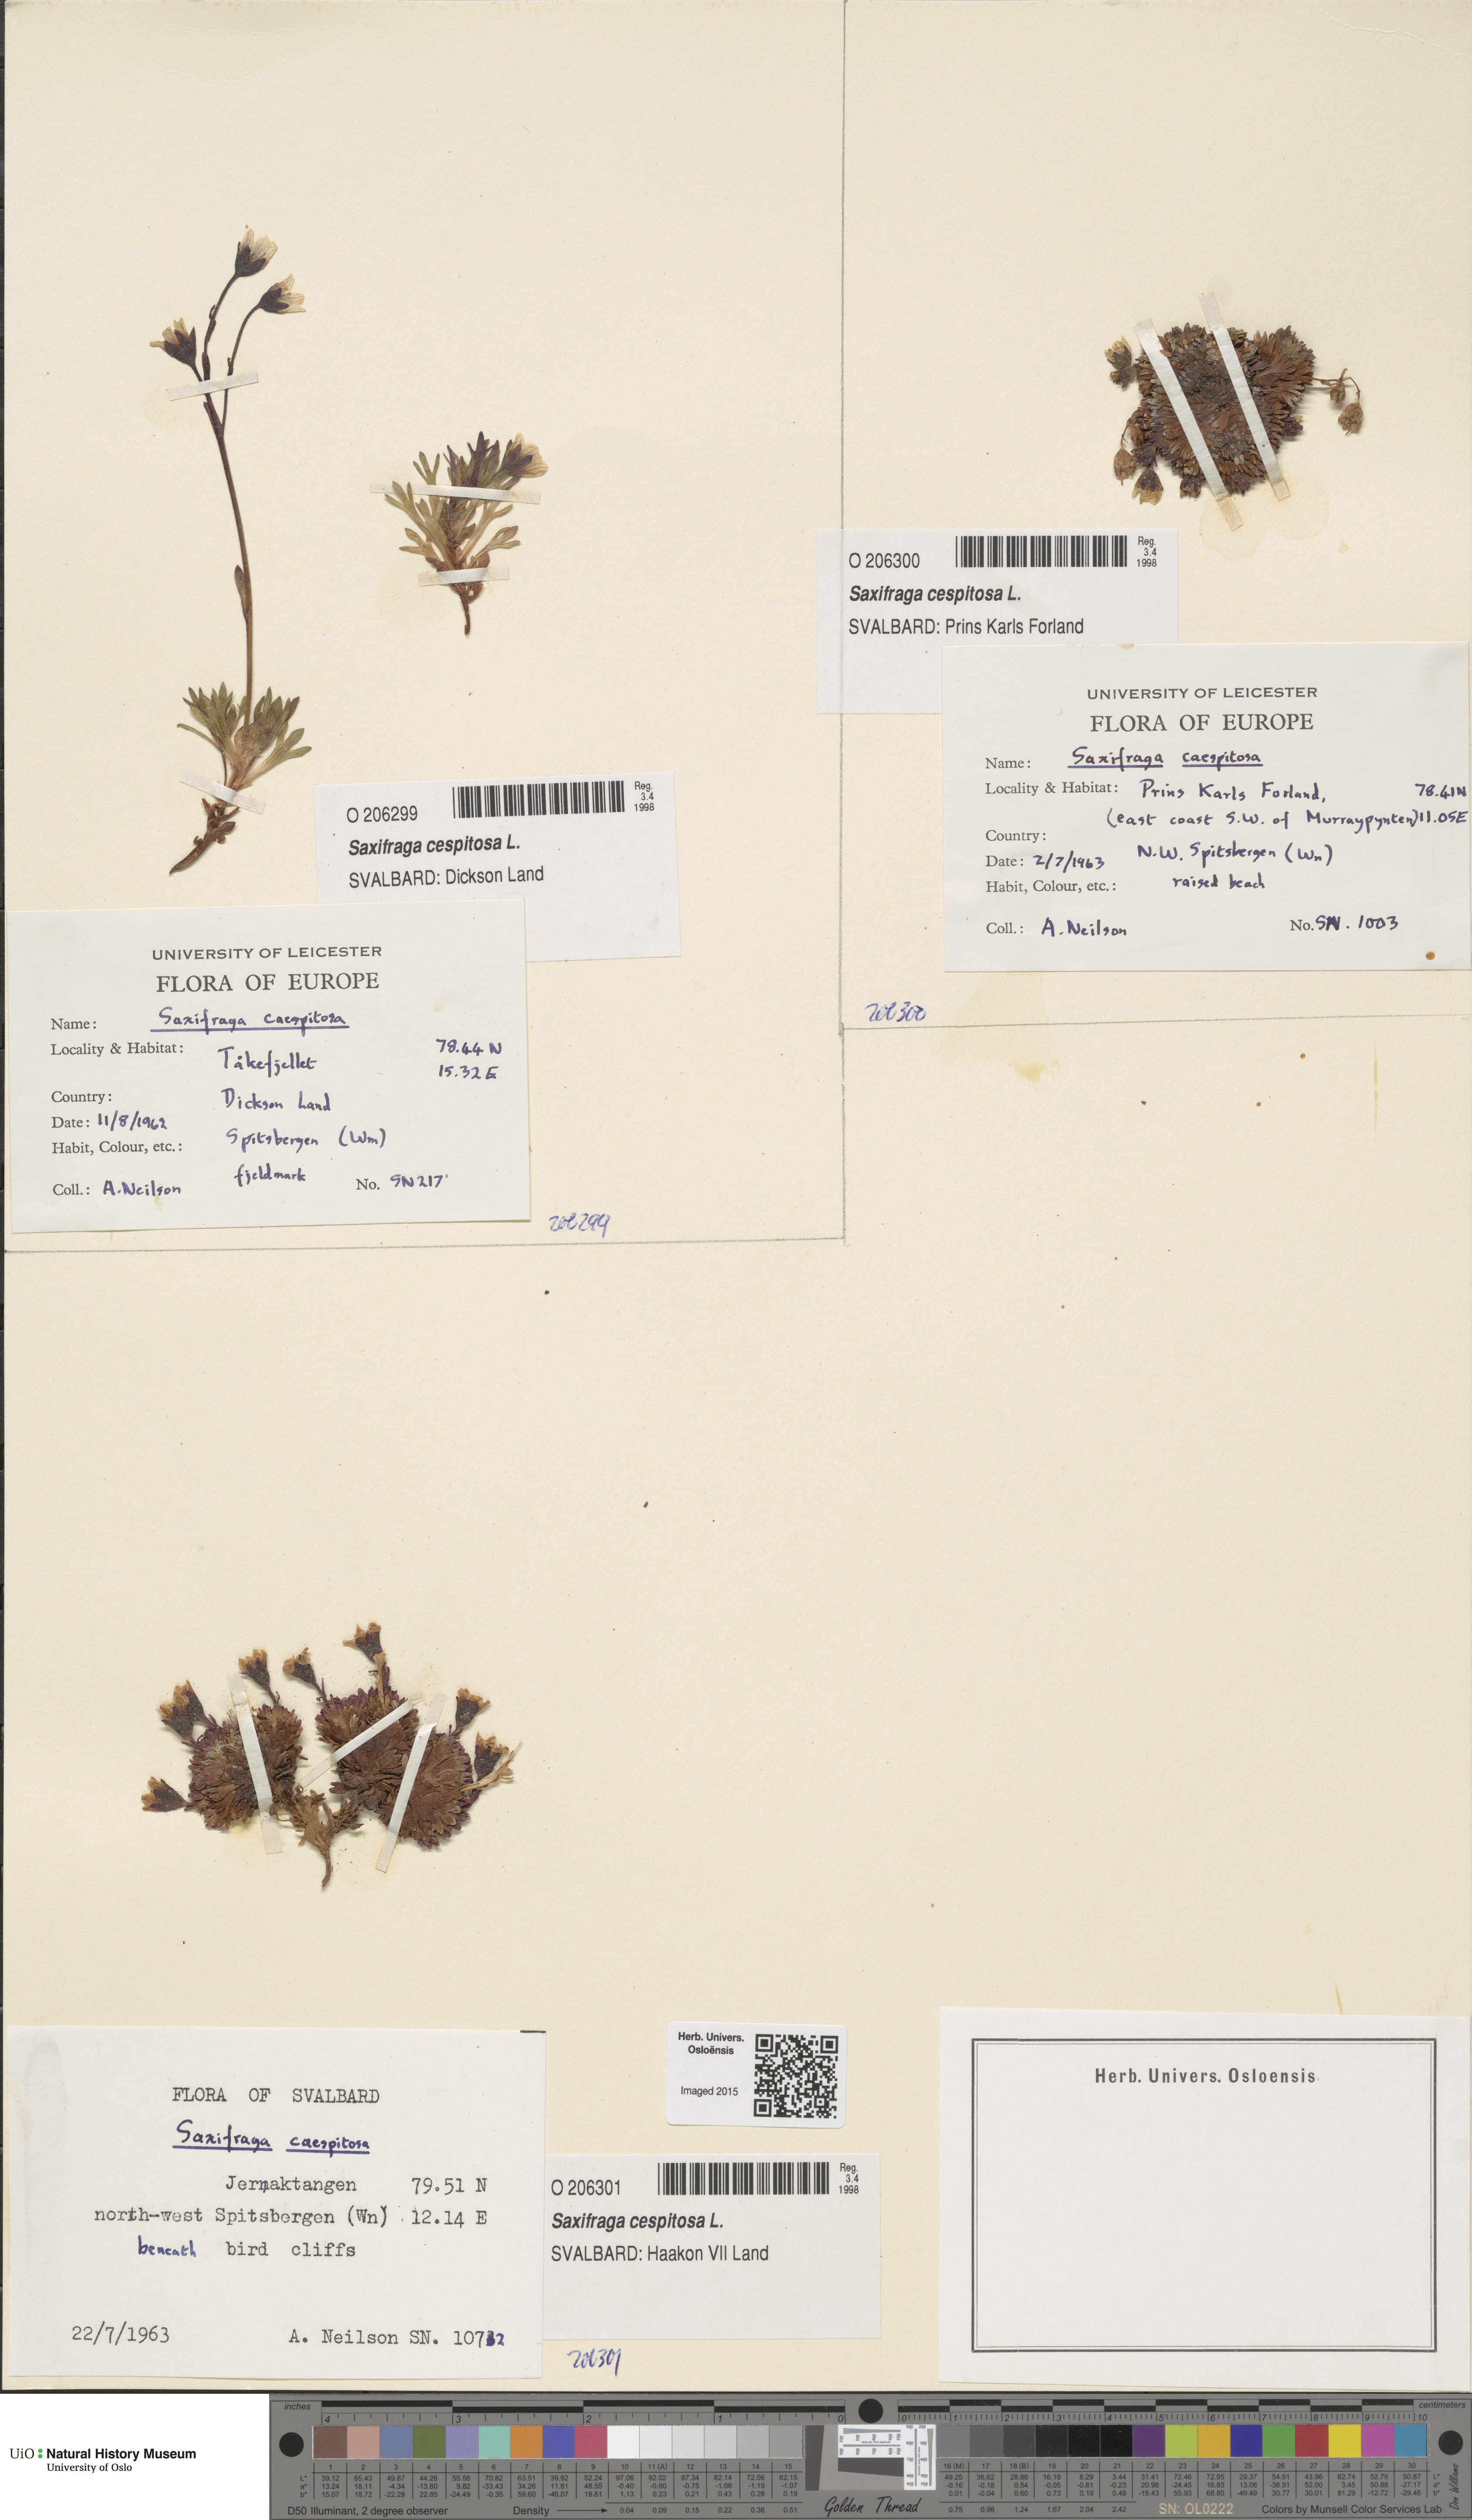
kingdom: Plantae
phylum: Tracheophyta
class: Magnoliopsida
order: Saxifragales
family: Saxifragaceae
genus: Saxifraga
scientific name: Saxifraga cespitosa
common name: Tufted saxifrage
